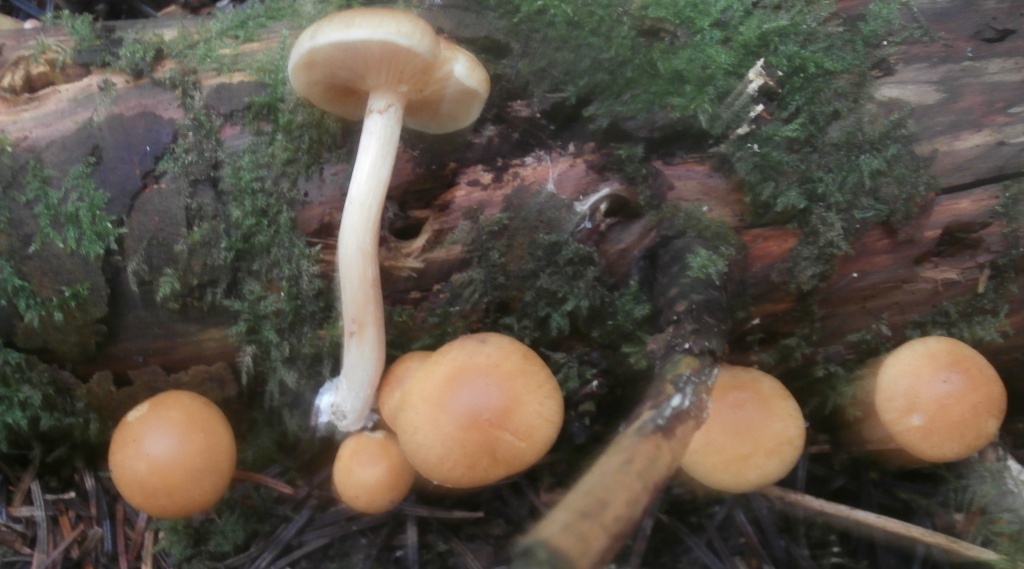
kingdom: Fungi
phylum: Basidiomycota
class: Agaricomycetes
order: Agaricales
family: Hymenogastraceae
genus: Gymnopilus
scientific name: Gymnopilus penetrans
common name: plettet flammehat
